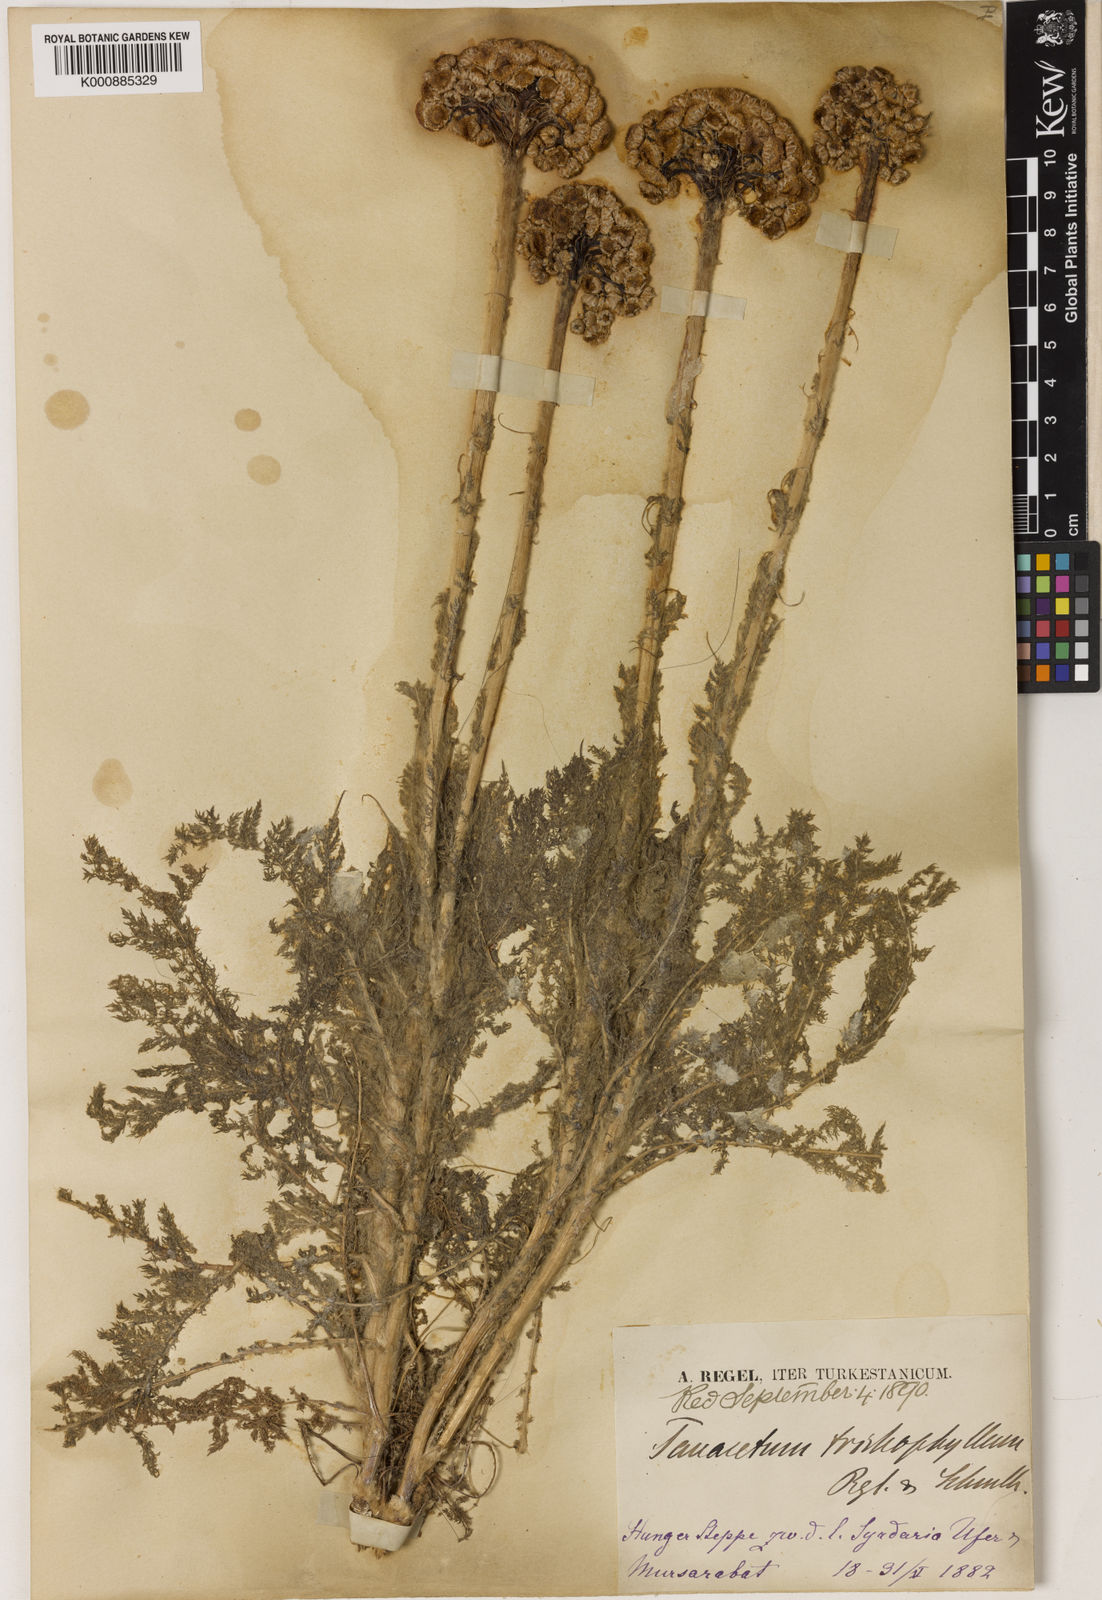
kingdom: Plantae
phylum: Tracheophyta
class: Magnoliopsida
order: Asterales
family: Asteraceae
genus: Pseudohandelia
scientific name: Pseudohandelia umbellifera
